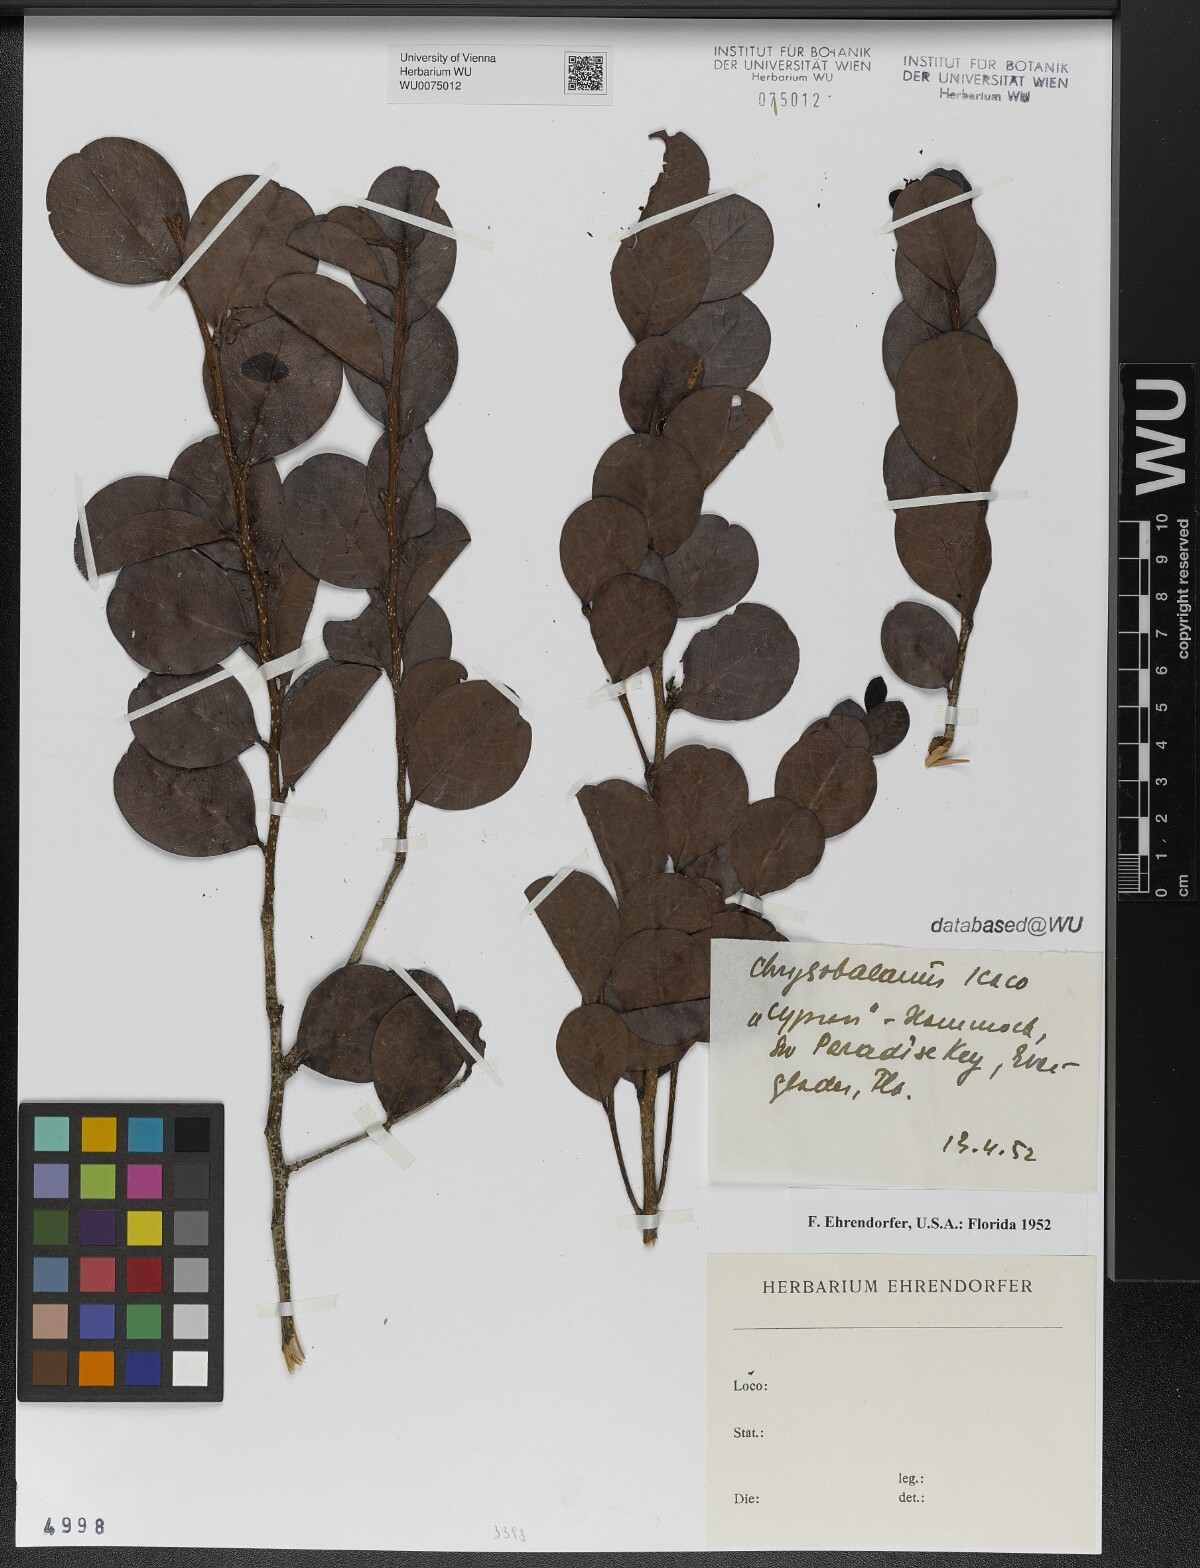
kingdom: Plantae
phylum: Tracheophyta
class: Magnoliopsida
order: Malpighiales
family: Chrysobalanaceae
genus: Chrysobalanus
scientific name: Chrysobalanus icaco
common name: Coco plum
